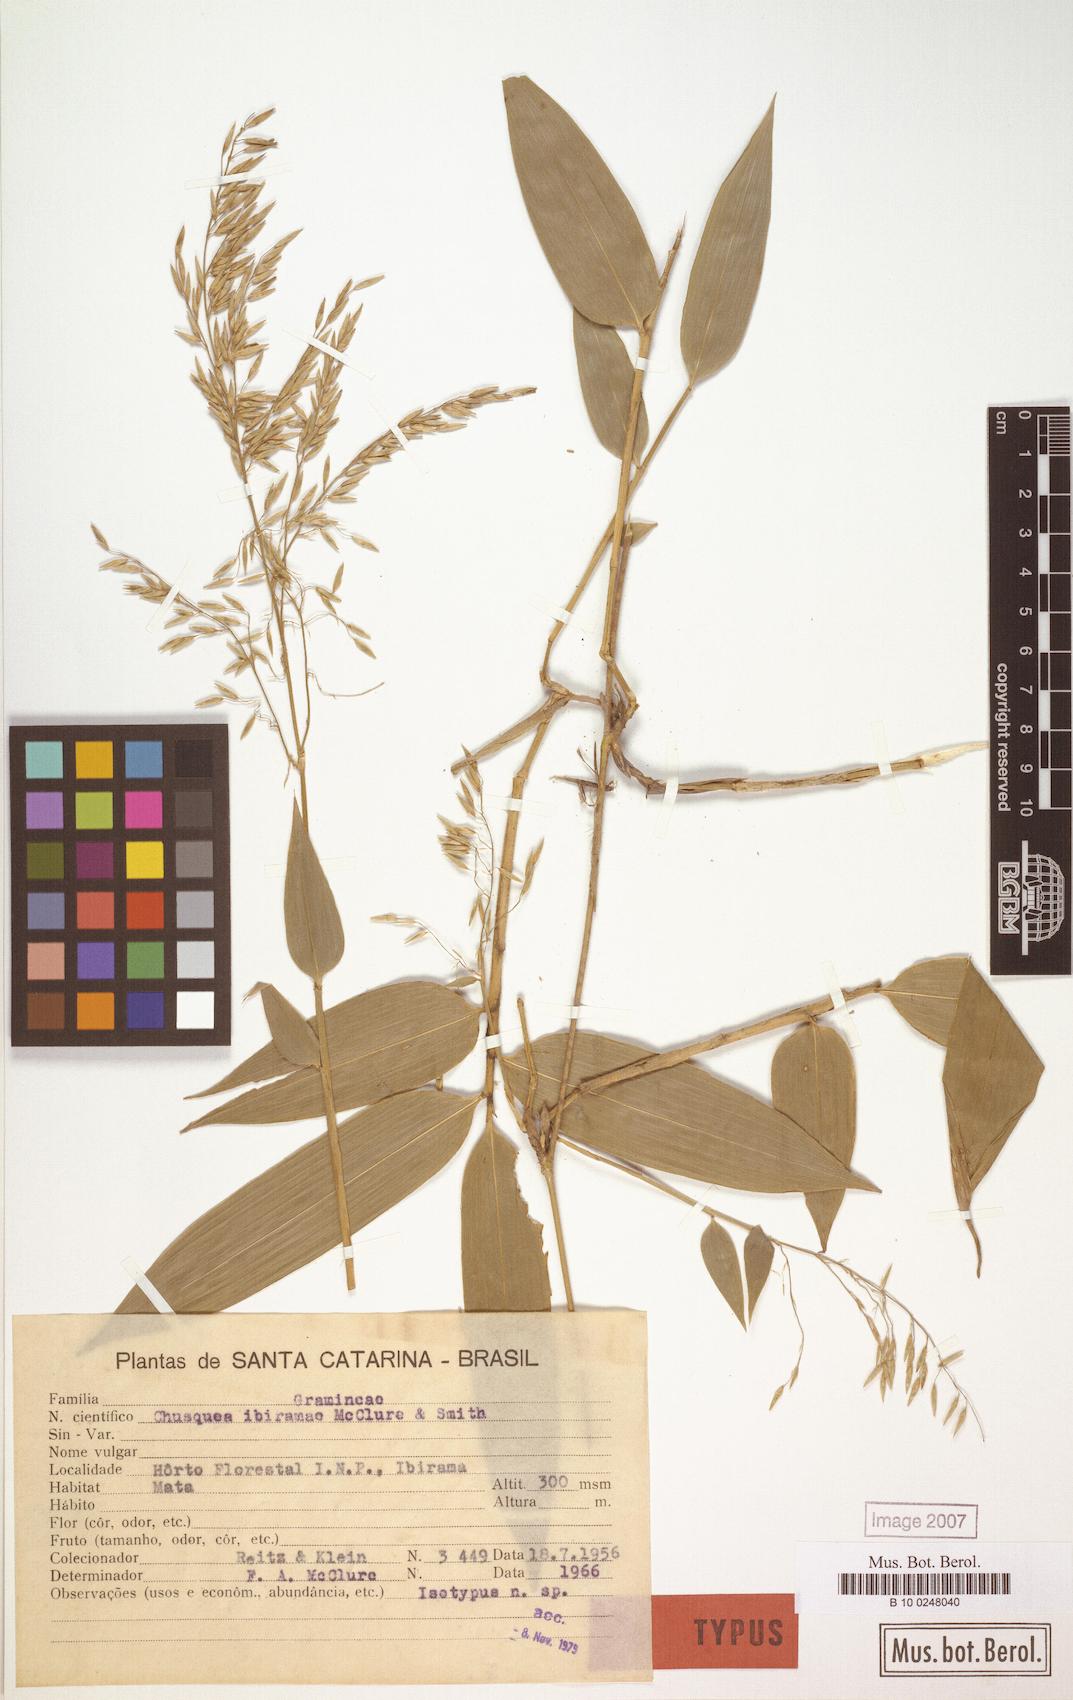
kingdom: Plantae
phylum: Tracheophyta
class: Liliopsida
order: Poales
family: Poaceae
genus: Chusquea
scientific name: Chusquea ibiramae
